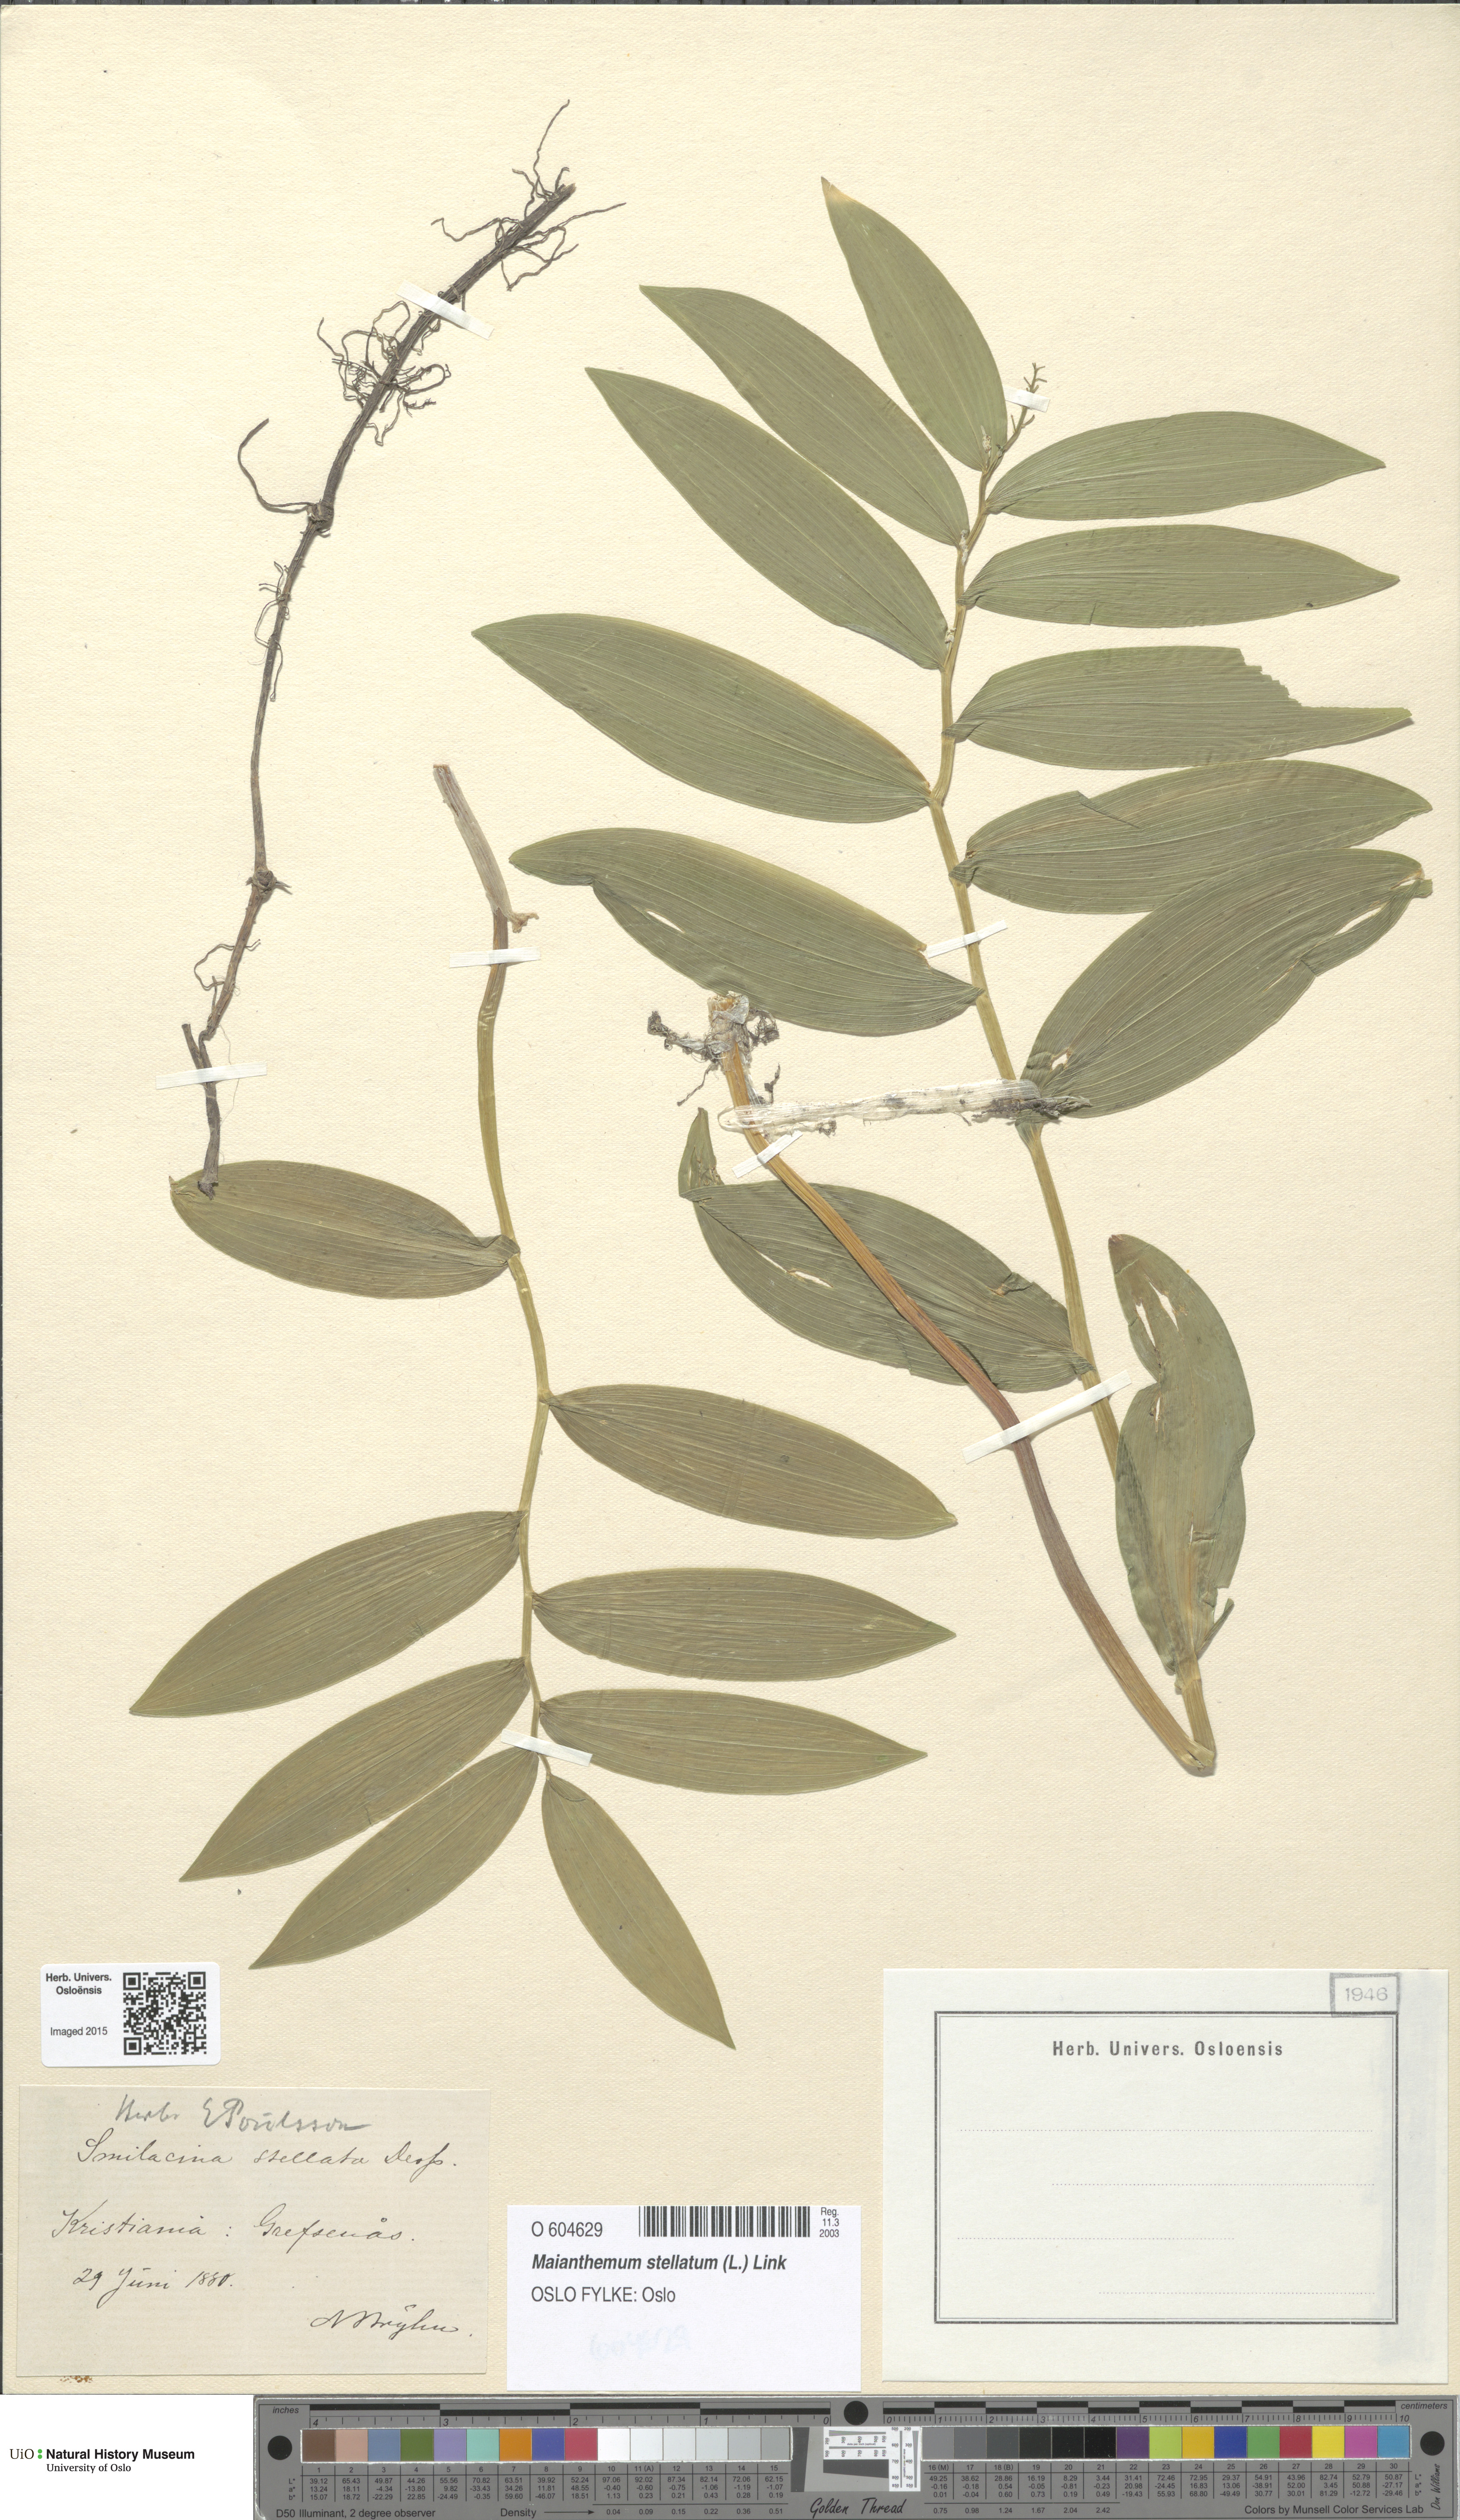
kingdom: Plantae
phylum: Tracheophyta
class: Liliopsida
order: Asparagales
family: Asparagaceae
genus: Maianthemum
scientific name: Maianthemum stellatum
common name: Little false solomon's seal
